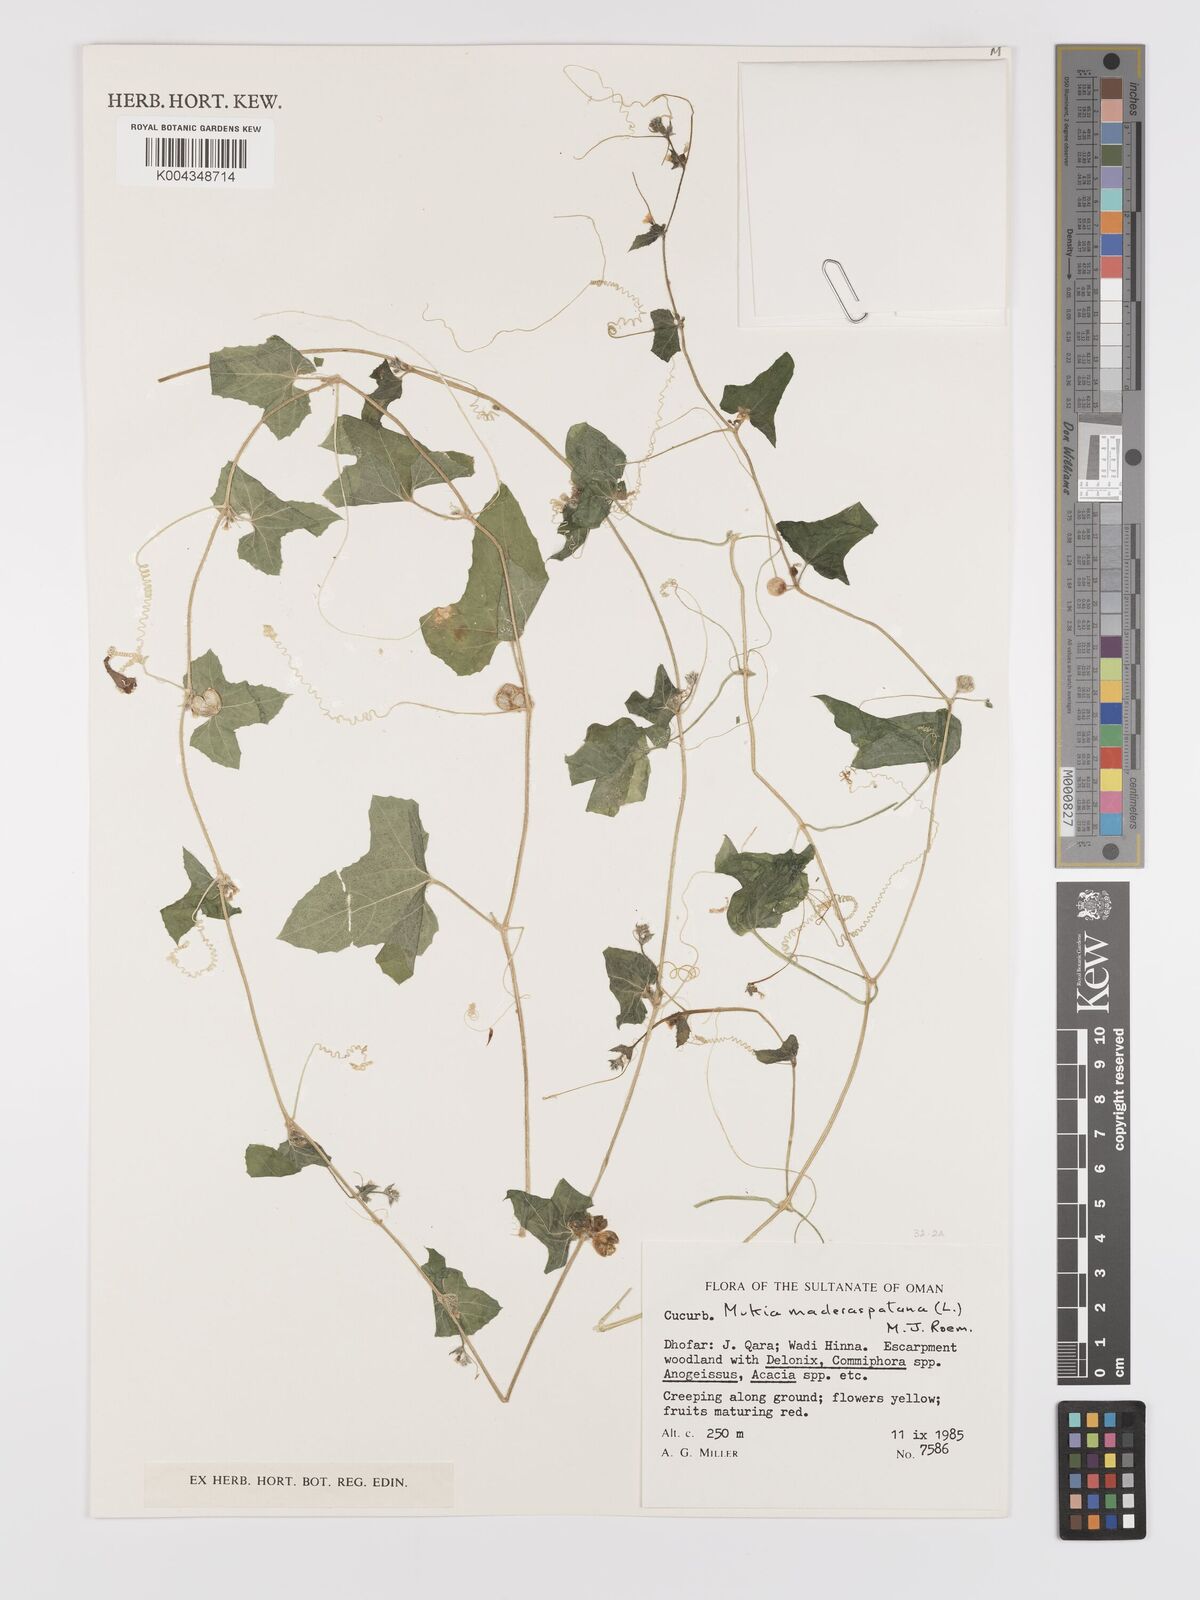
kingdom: Plantae
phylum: Tracheophyta
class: Magnoliopsida
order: Cucurbitales
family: Cucurbitaceae
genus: Cucumis
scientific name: Cucumis maderaspatanus
